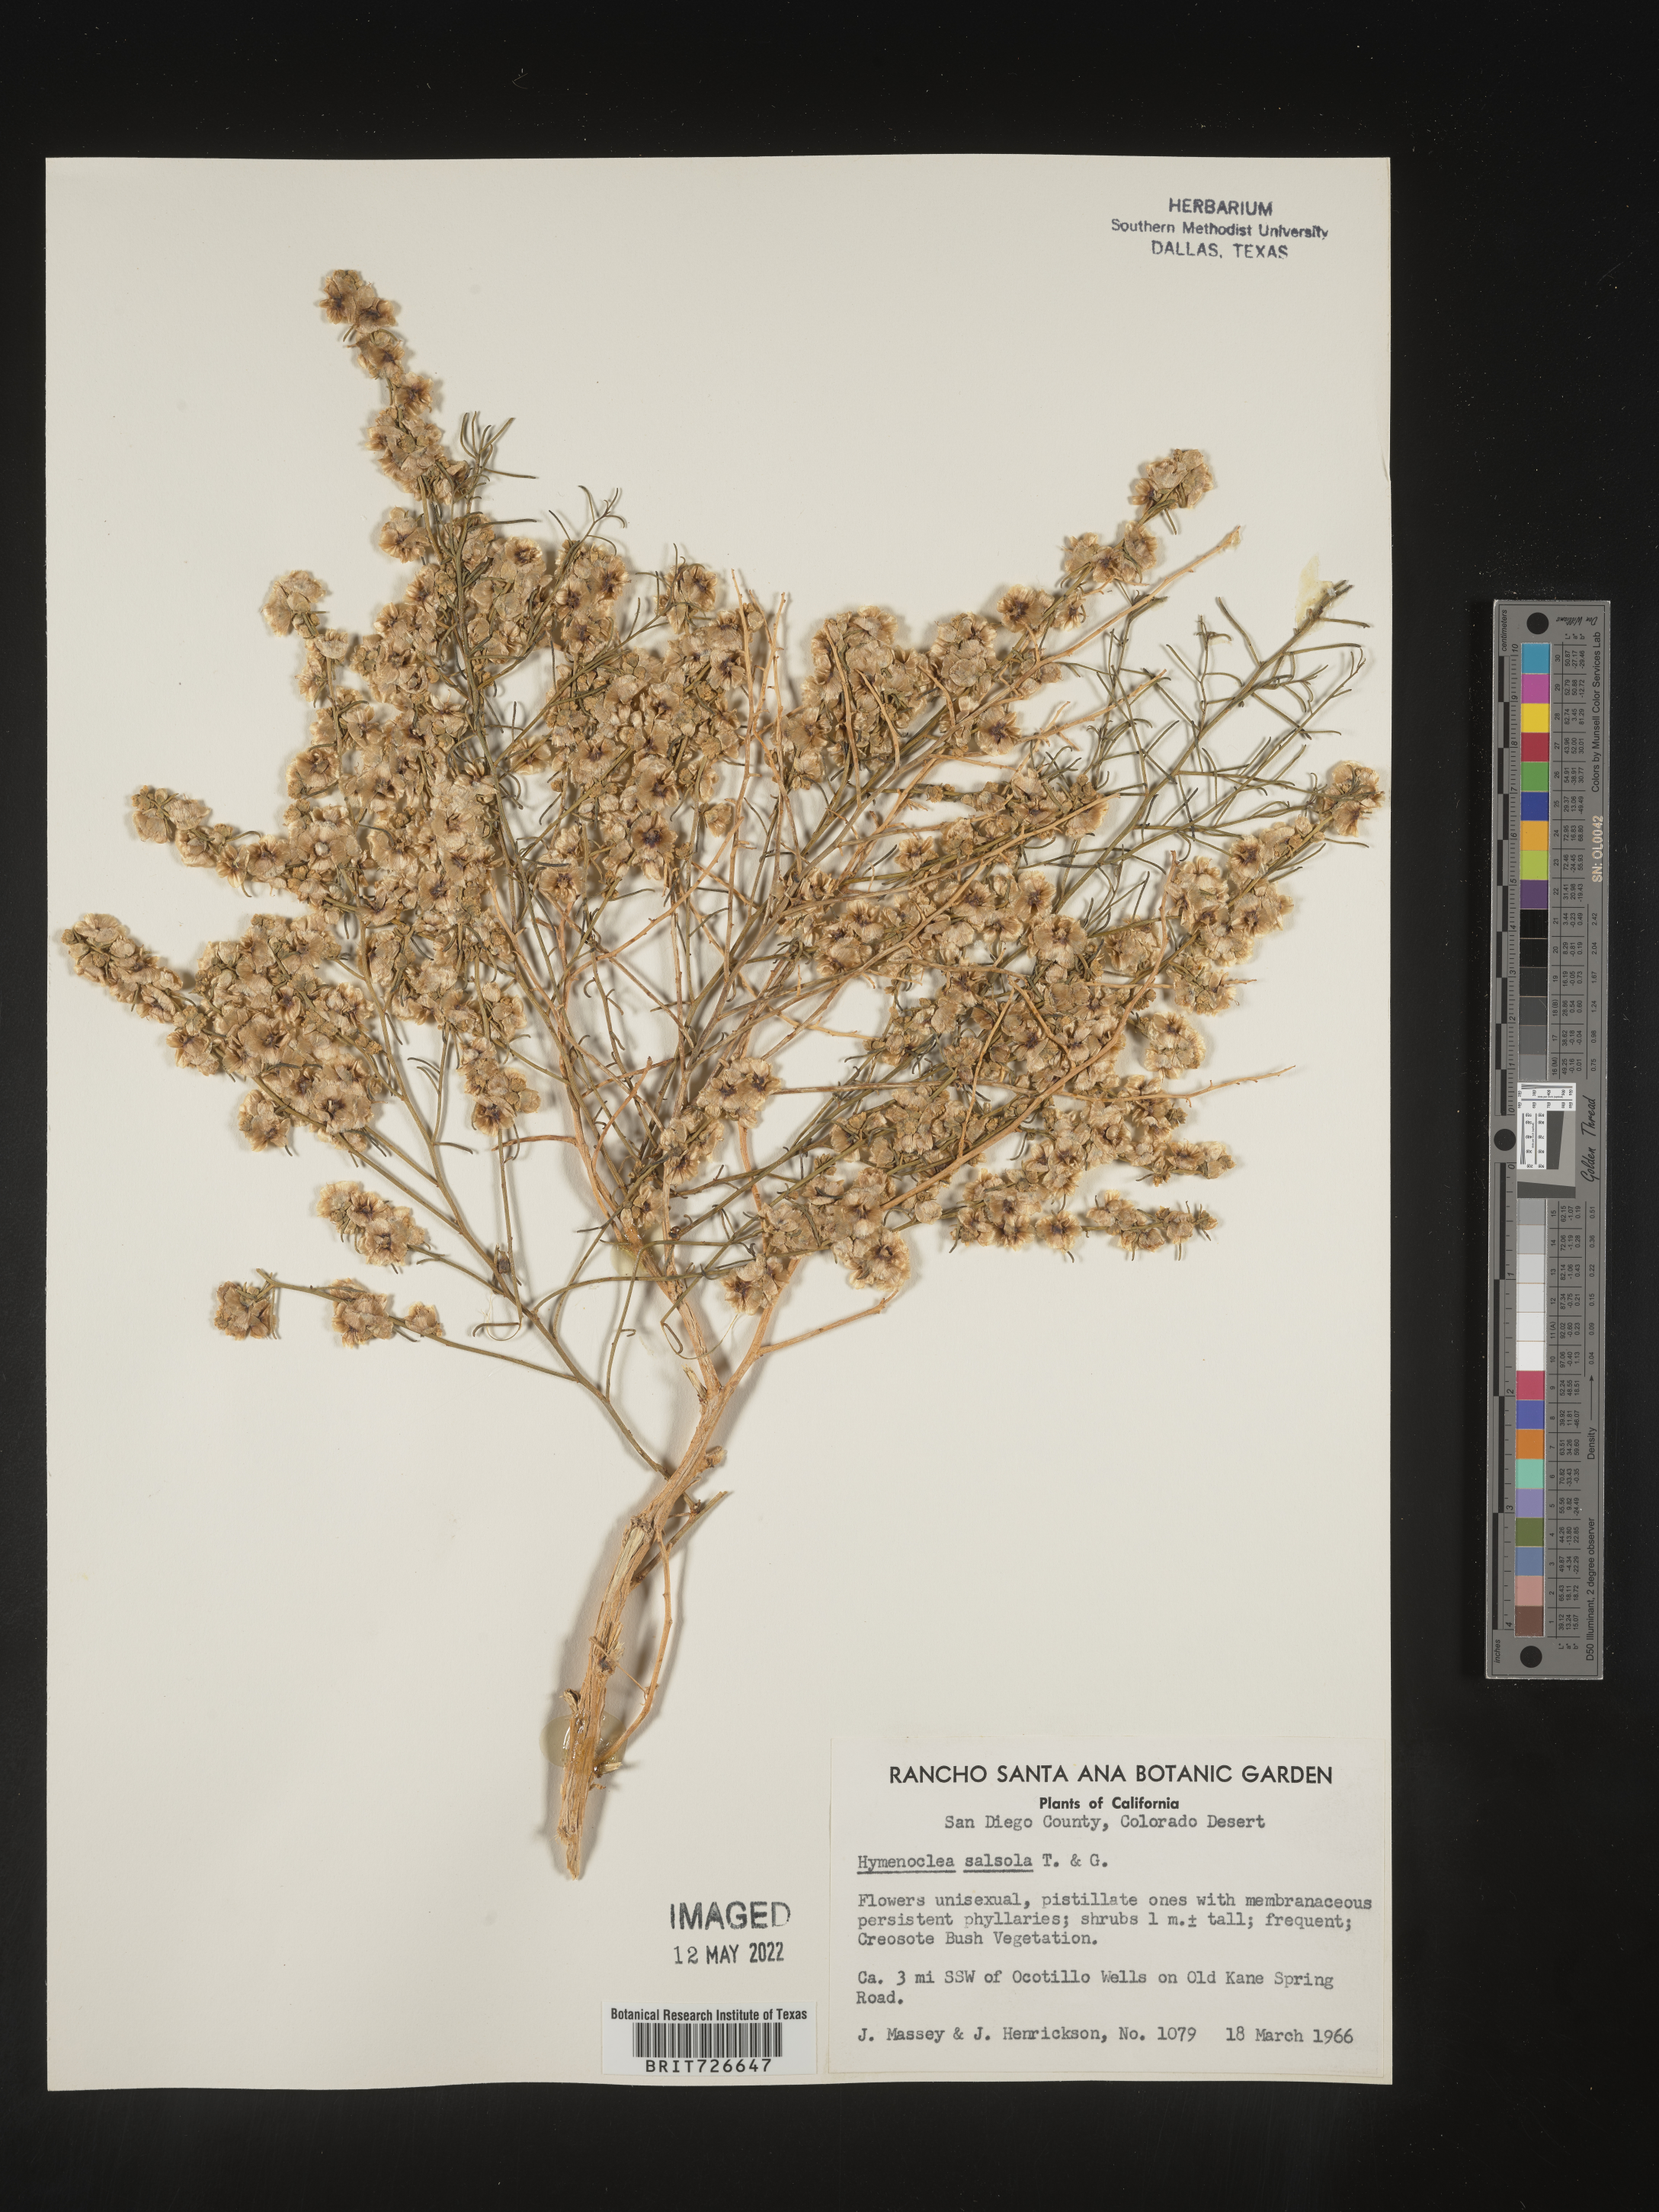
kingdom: Animalia
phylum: Arthropoda
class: Insecta
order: Lepidoptera
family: Sesiidae
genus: Hymenoclea
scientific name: Hymenoclea
